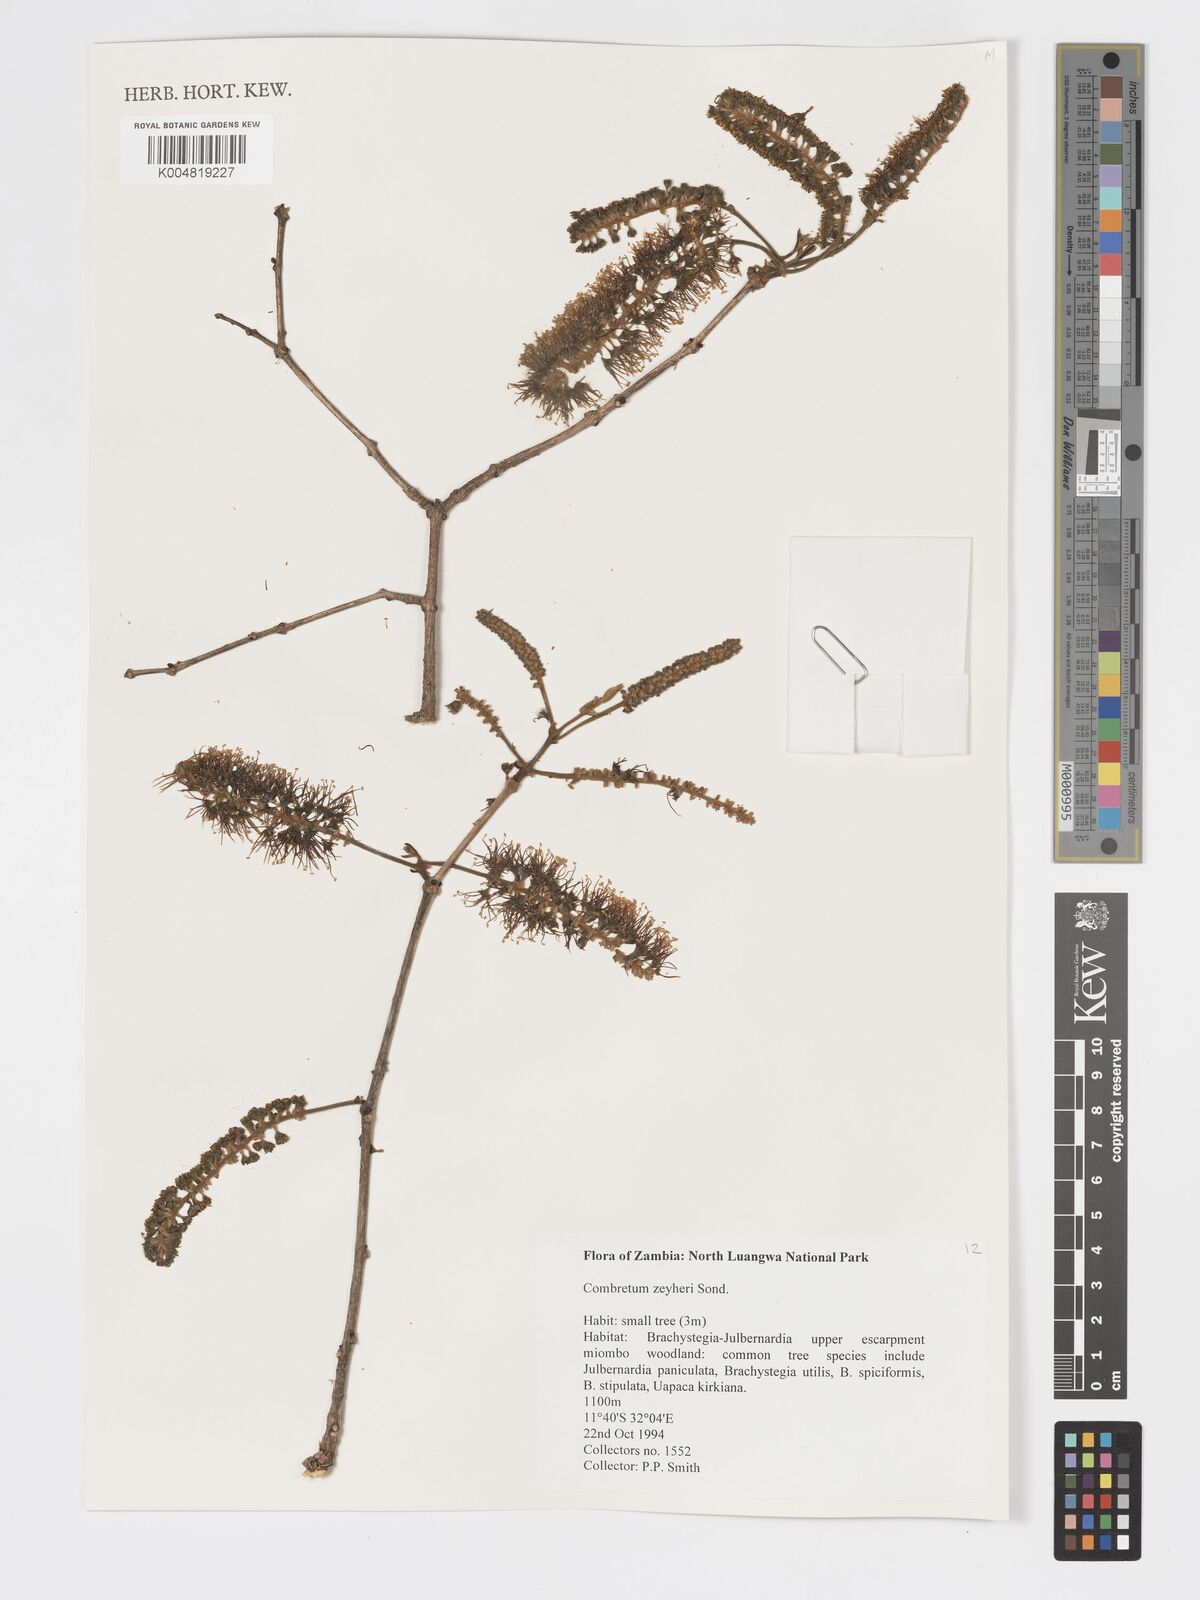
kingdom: Plantae
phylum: Tracheophyta
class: Magnoliopsida
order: Myrtales
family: Combretaceae
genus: Combretum
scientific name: Combretum zeyheri
